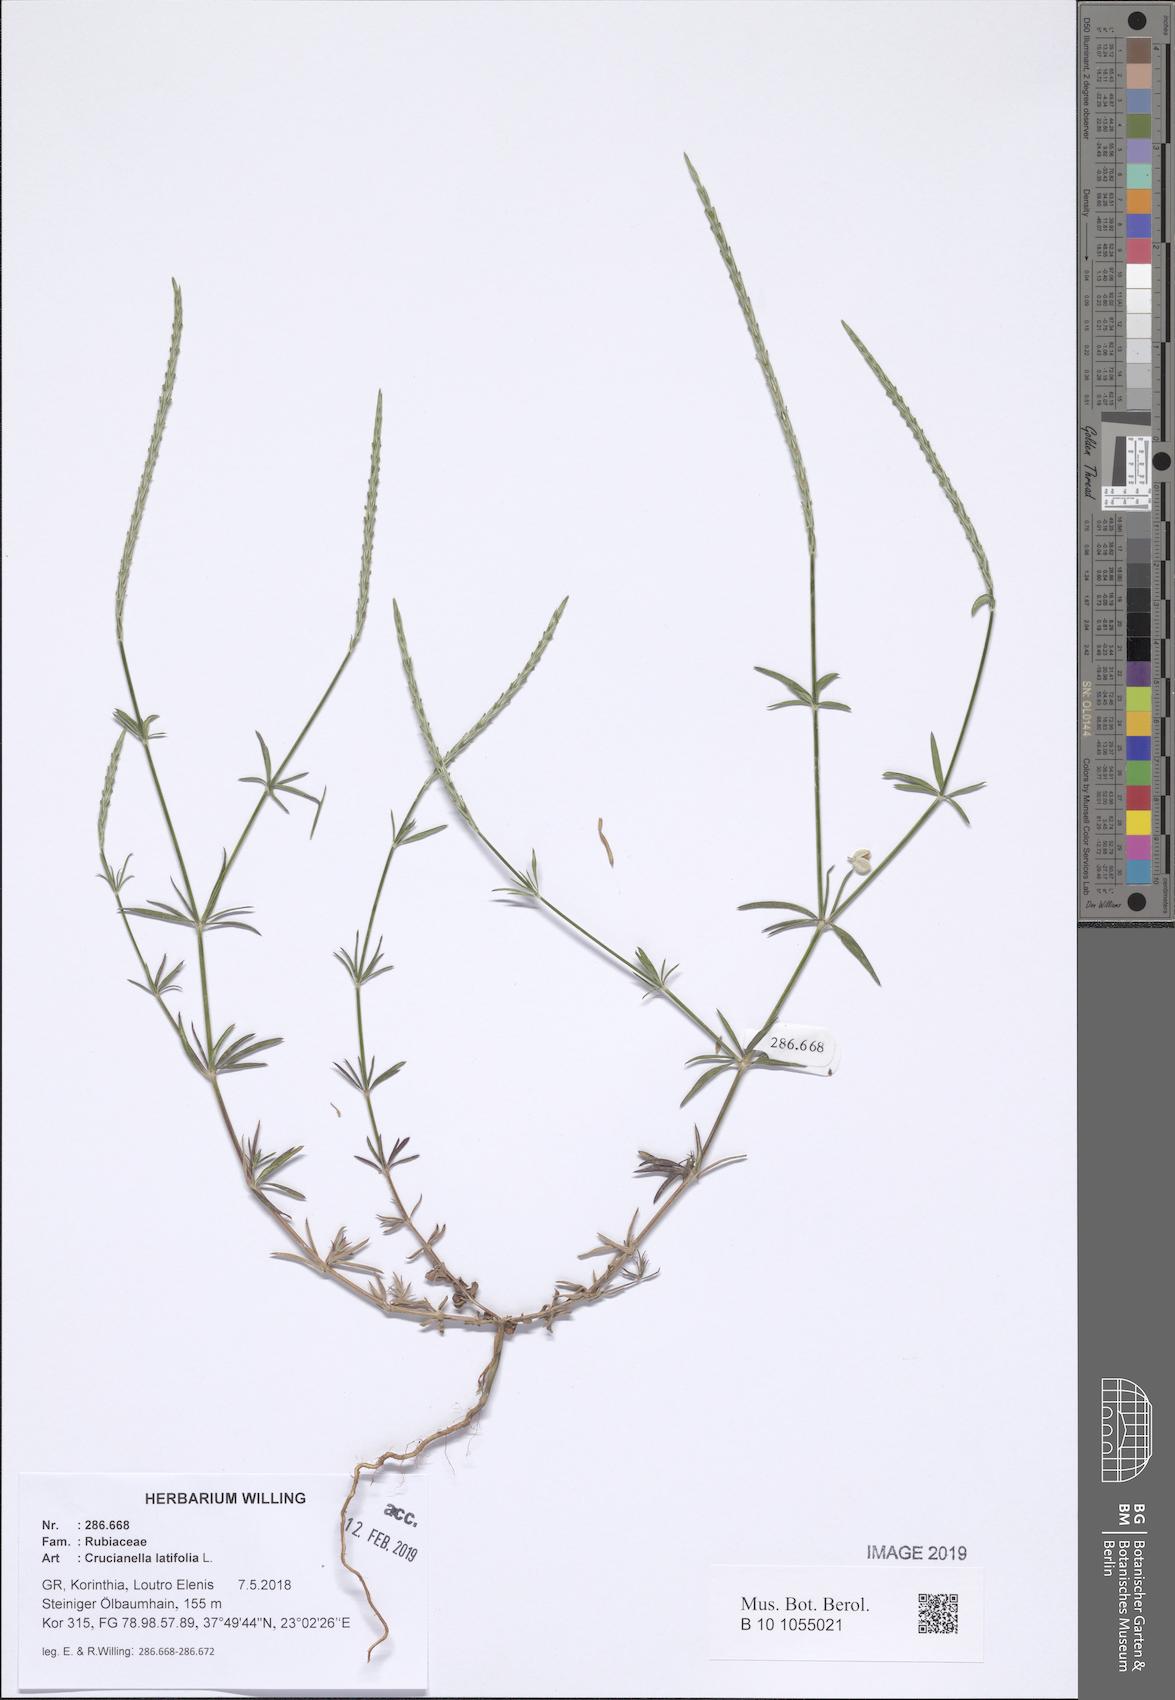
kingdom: Plantae
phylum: Tracheophyta
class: Magnoliopsida
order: Gentianales
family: Rubiaceae
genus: Crucianella
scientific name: Crucianella latifolia
